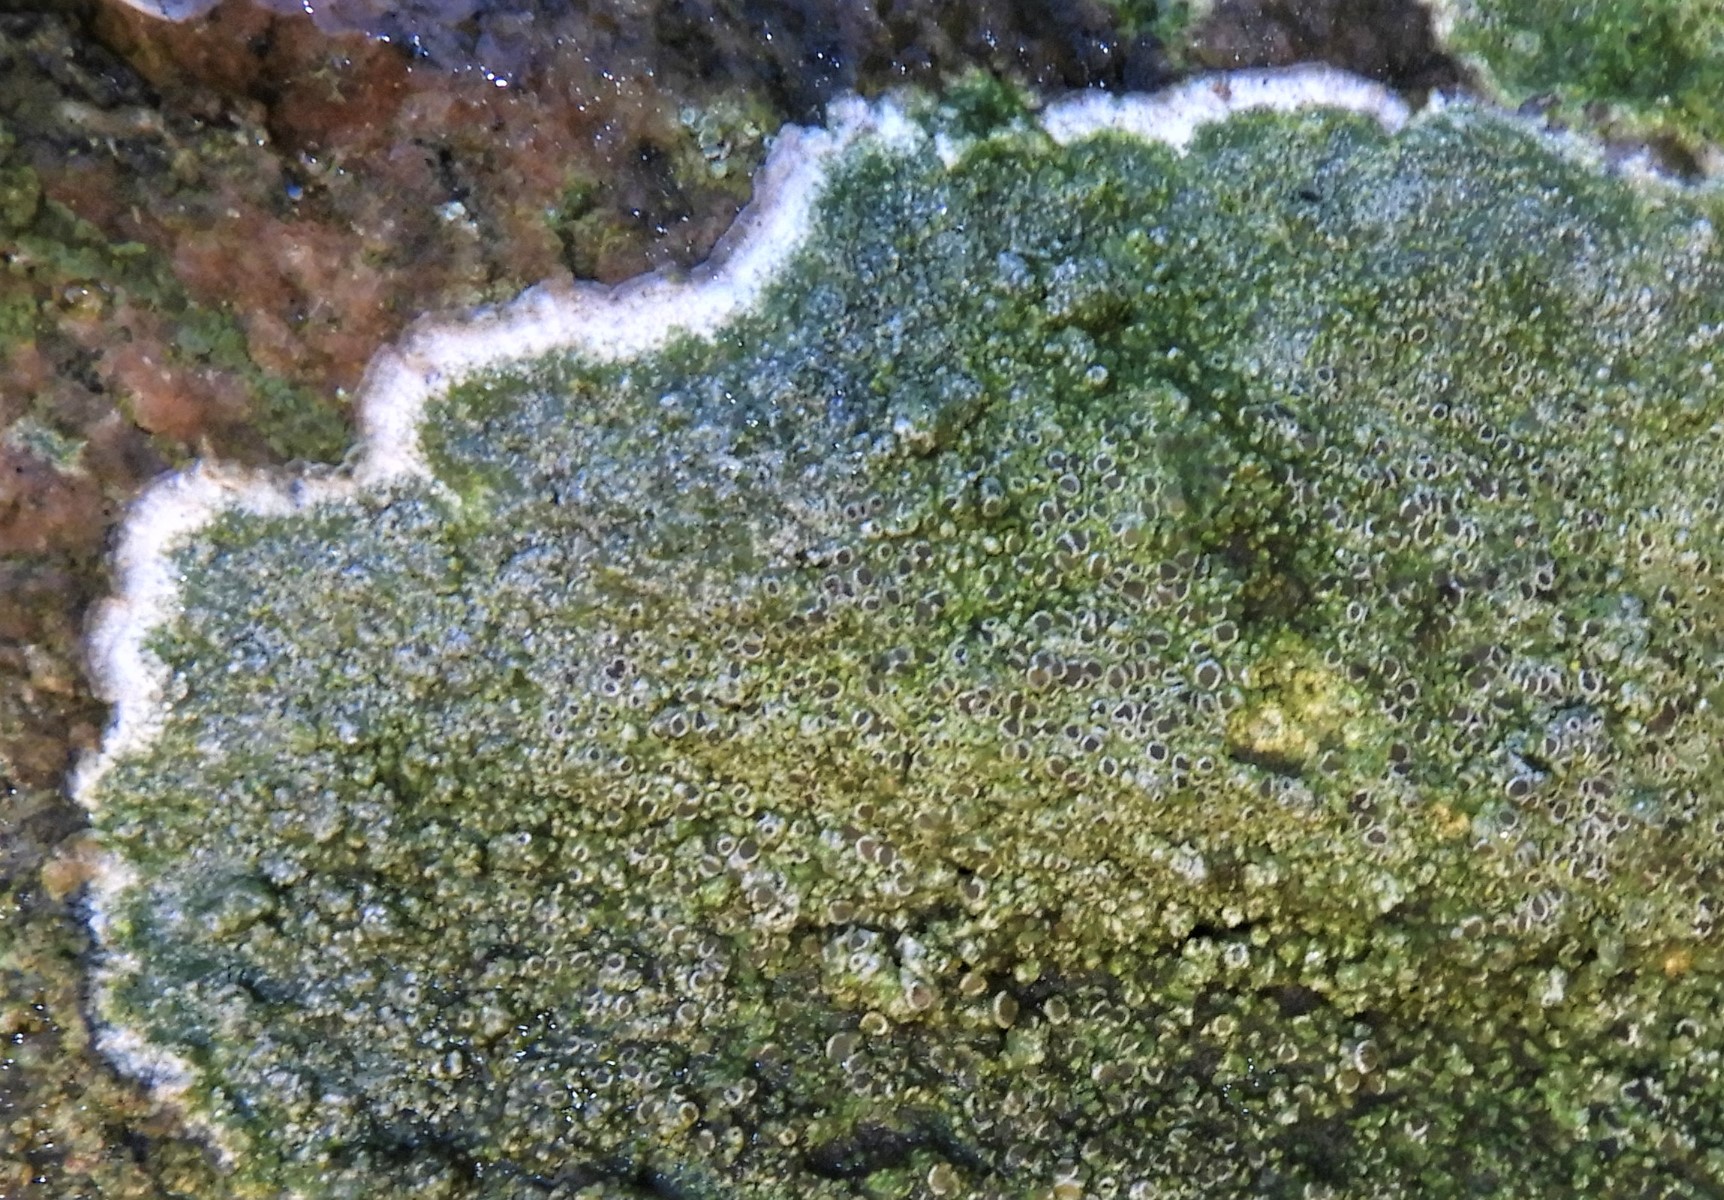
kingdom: Fungi
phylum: Ascomycota
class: Lecanoromycetes
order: Lecanorales
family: Lecanoraceae
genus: Lecanora
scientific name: Lecanora
